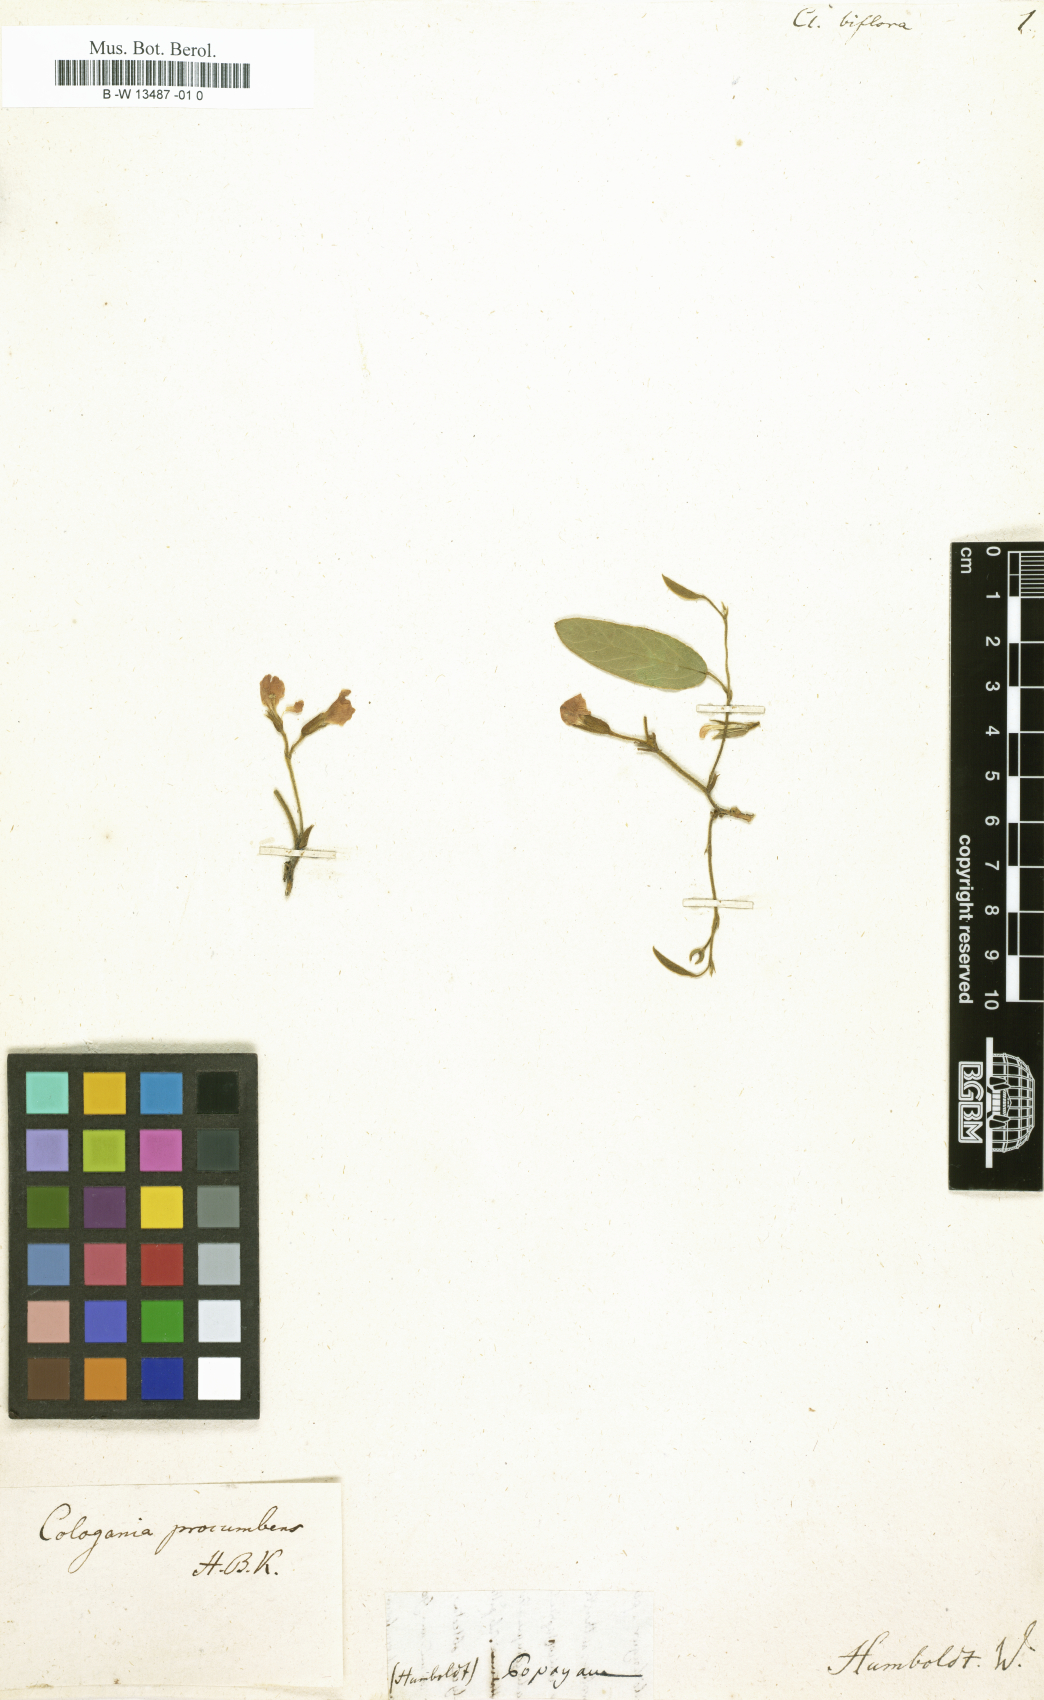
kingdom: Plantae
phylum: Tracheophyta
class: Magnoliopsida
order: Fabales
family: Fabaceae
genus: Clitoria
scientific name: Clitoria annua
